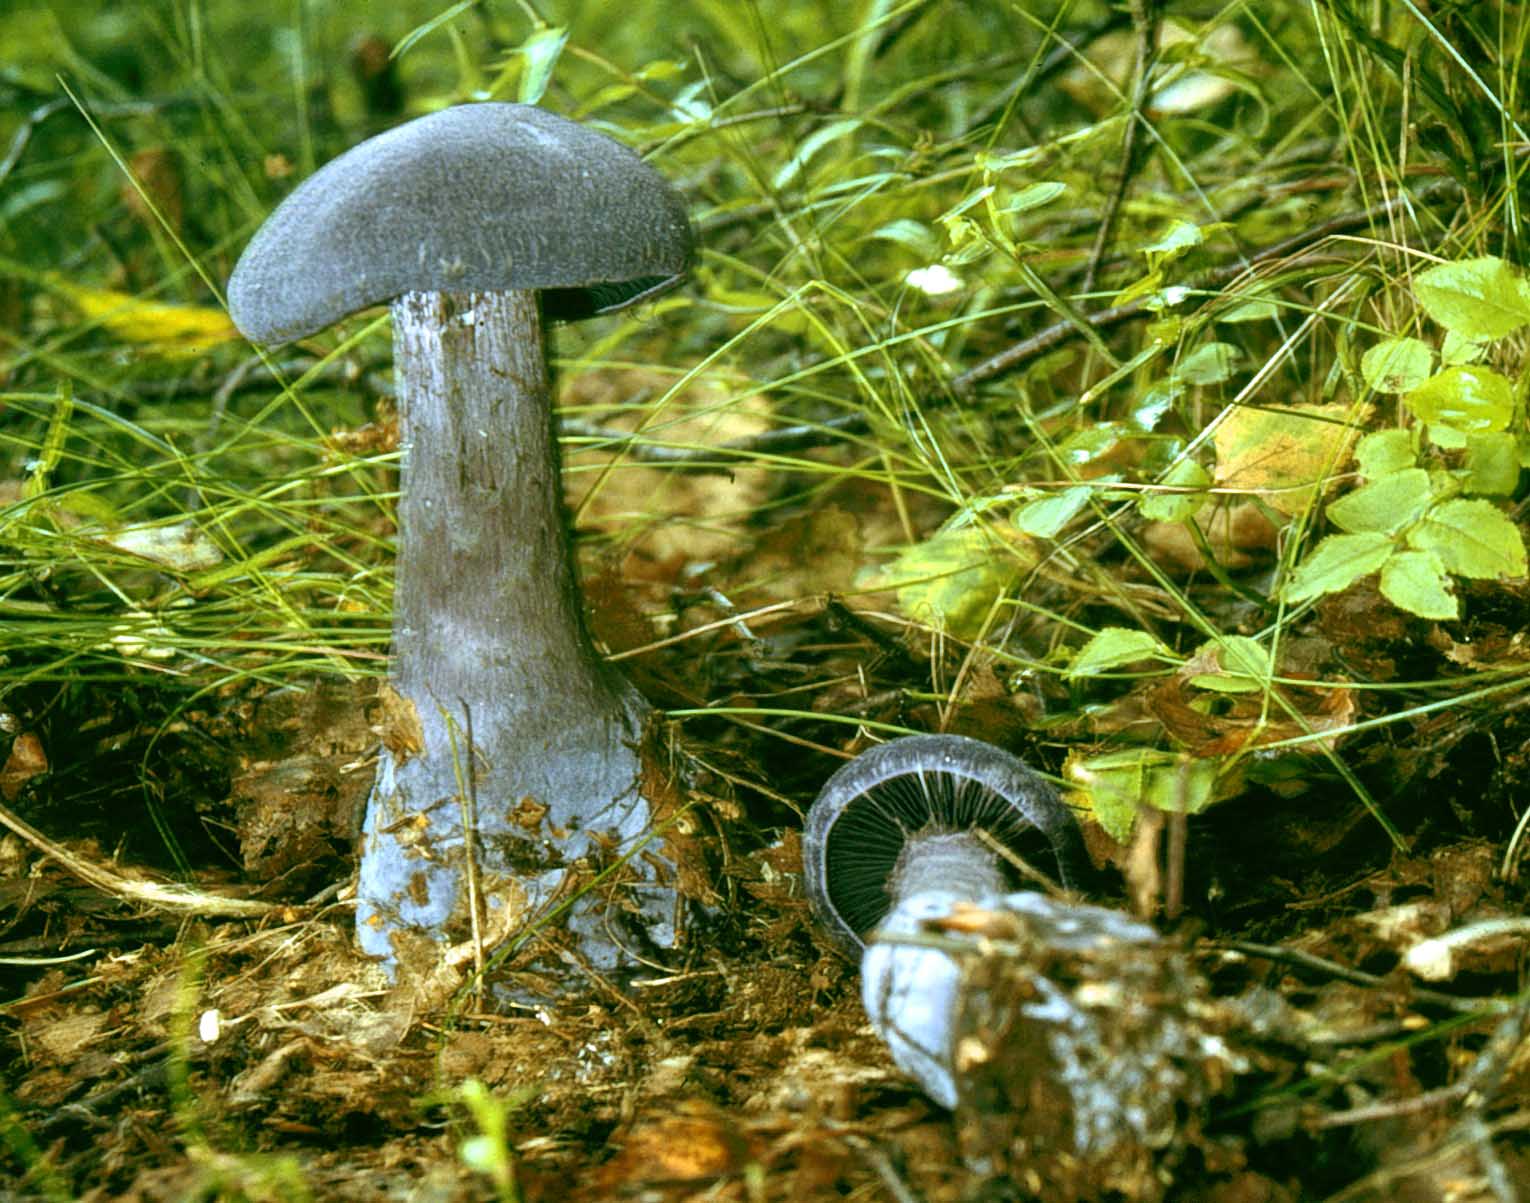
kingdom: Fungi
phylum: Basidiomycota
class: Agaricomycetes
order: Agaricales
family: Cortinariaceae
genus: Cortinarius
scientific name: Cortinarius violaceus
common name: mørkviolet slørhat
